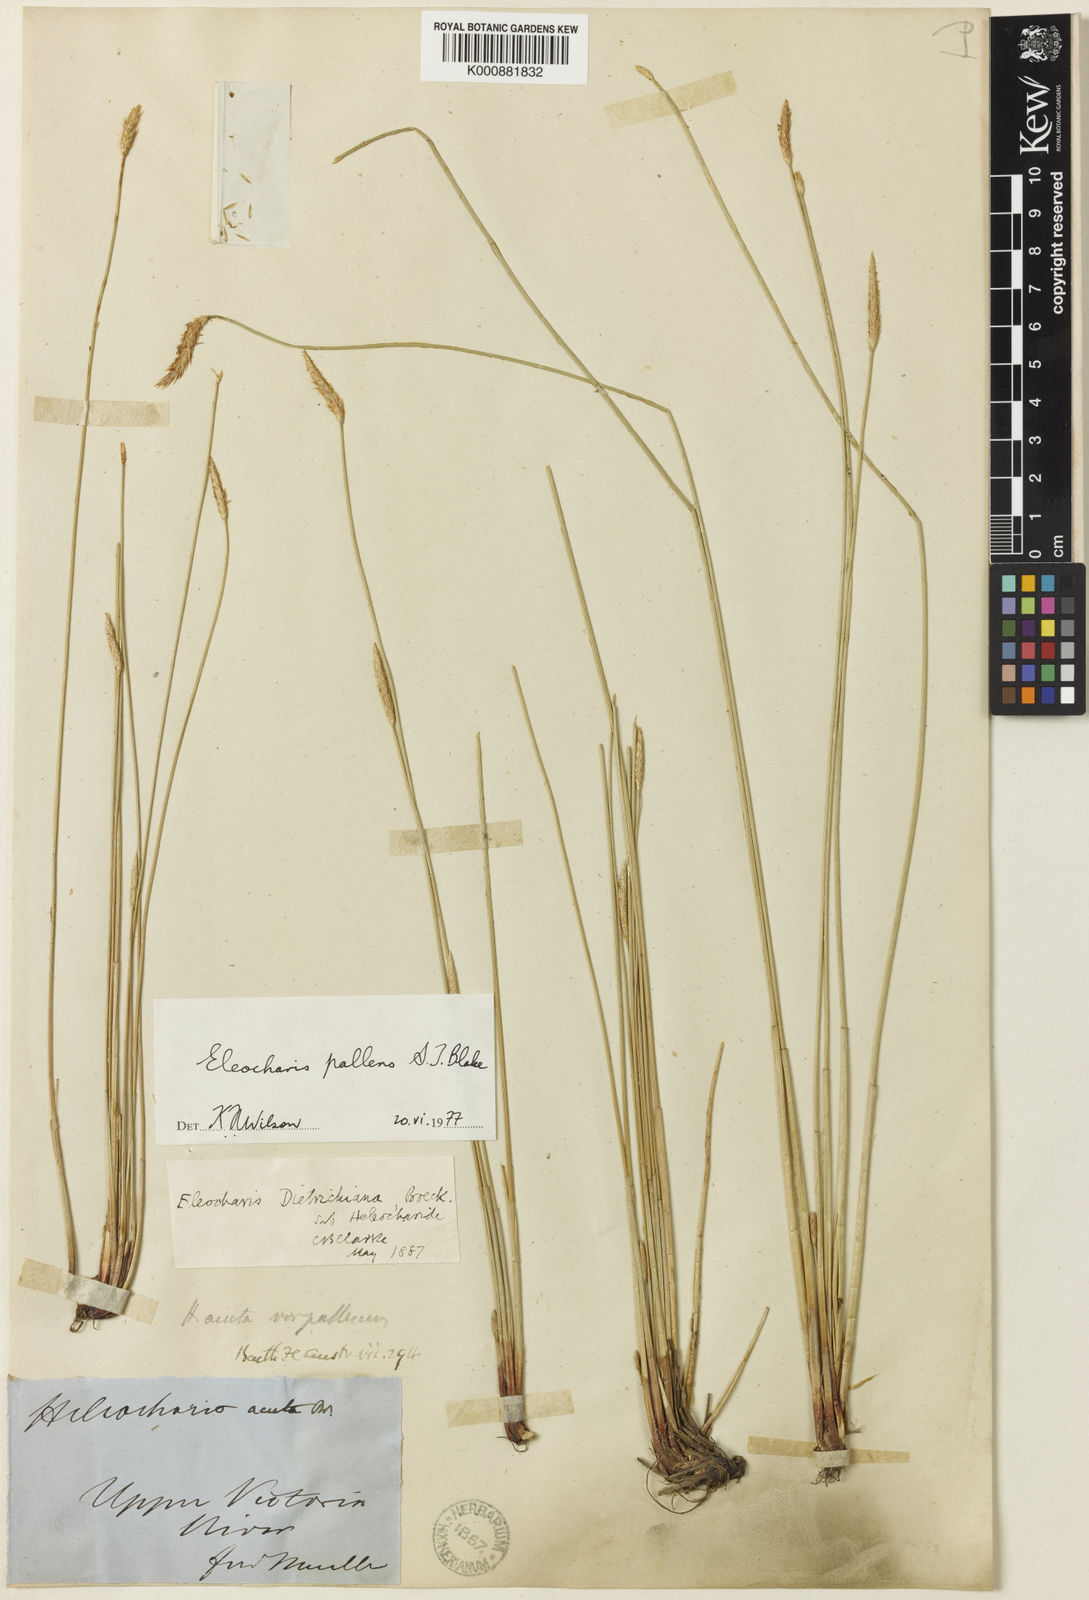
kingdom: Plantae
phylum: Tracheophyta
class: Liliopsida
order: Poales
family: Cyperaceae
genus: Eleocharis
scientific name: Eleocharis acuta
